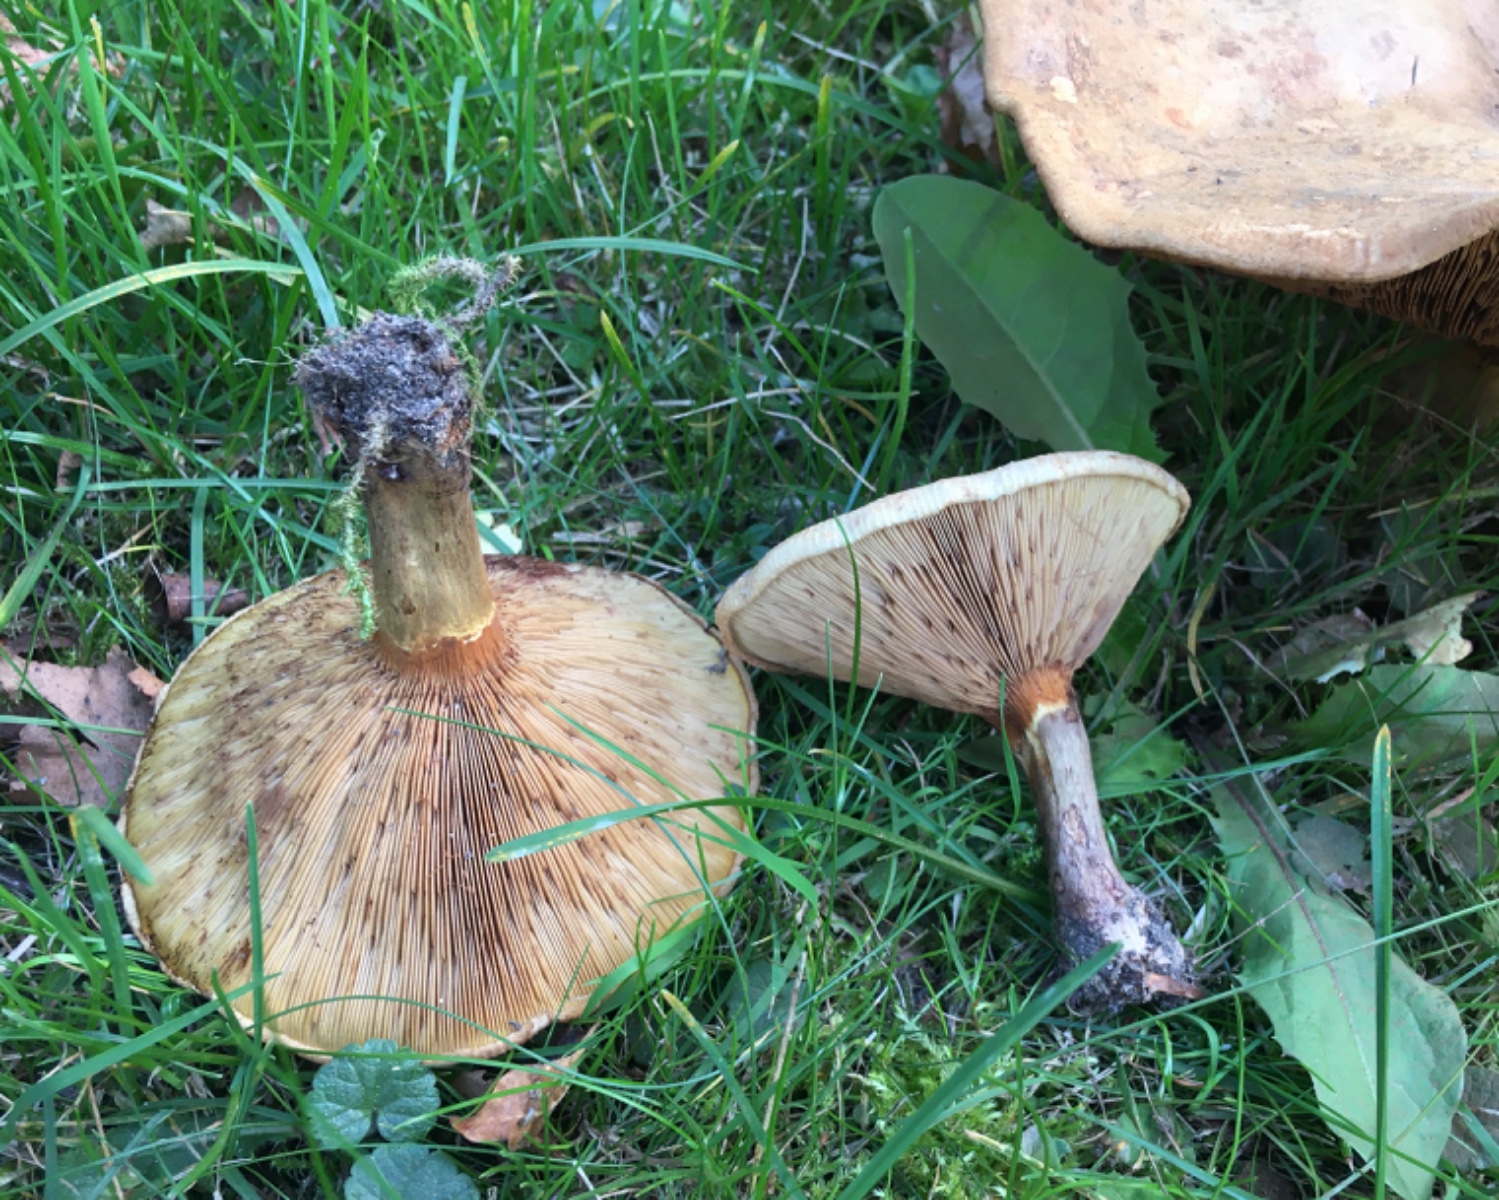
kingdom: Fungi
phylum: Basidiomycota
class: Agaricomycetes
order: Boletales
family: Paxillaceae
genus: Paxillus
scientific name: Paxillus involutus
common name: almindelig netbladhat
